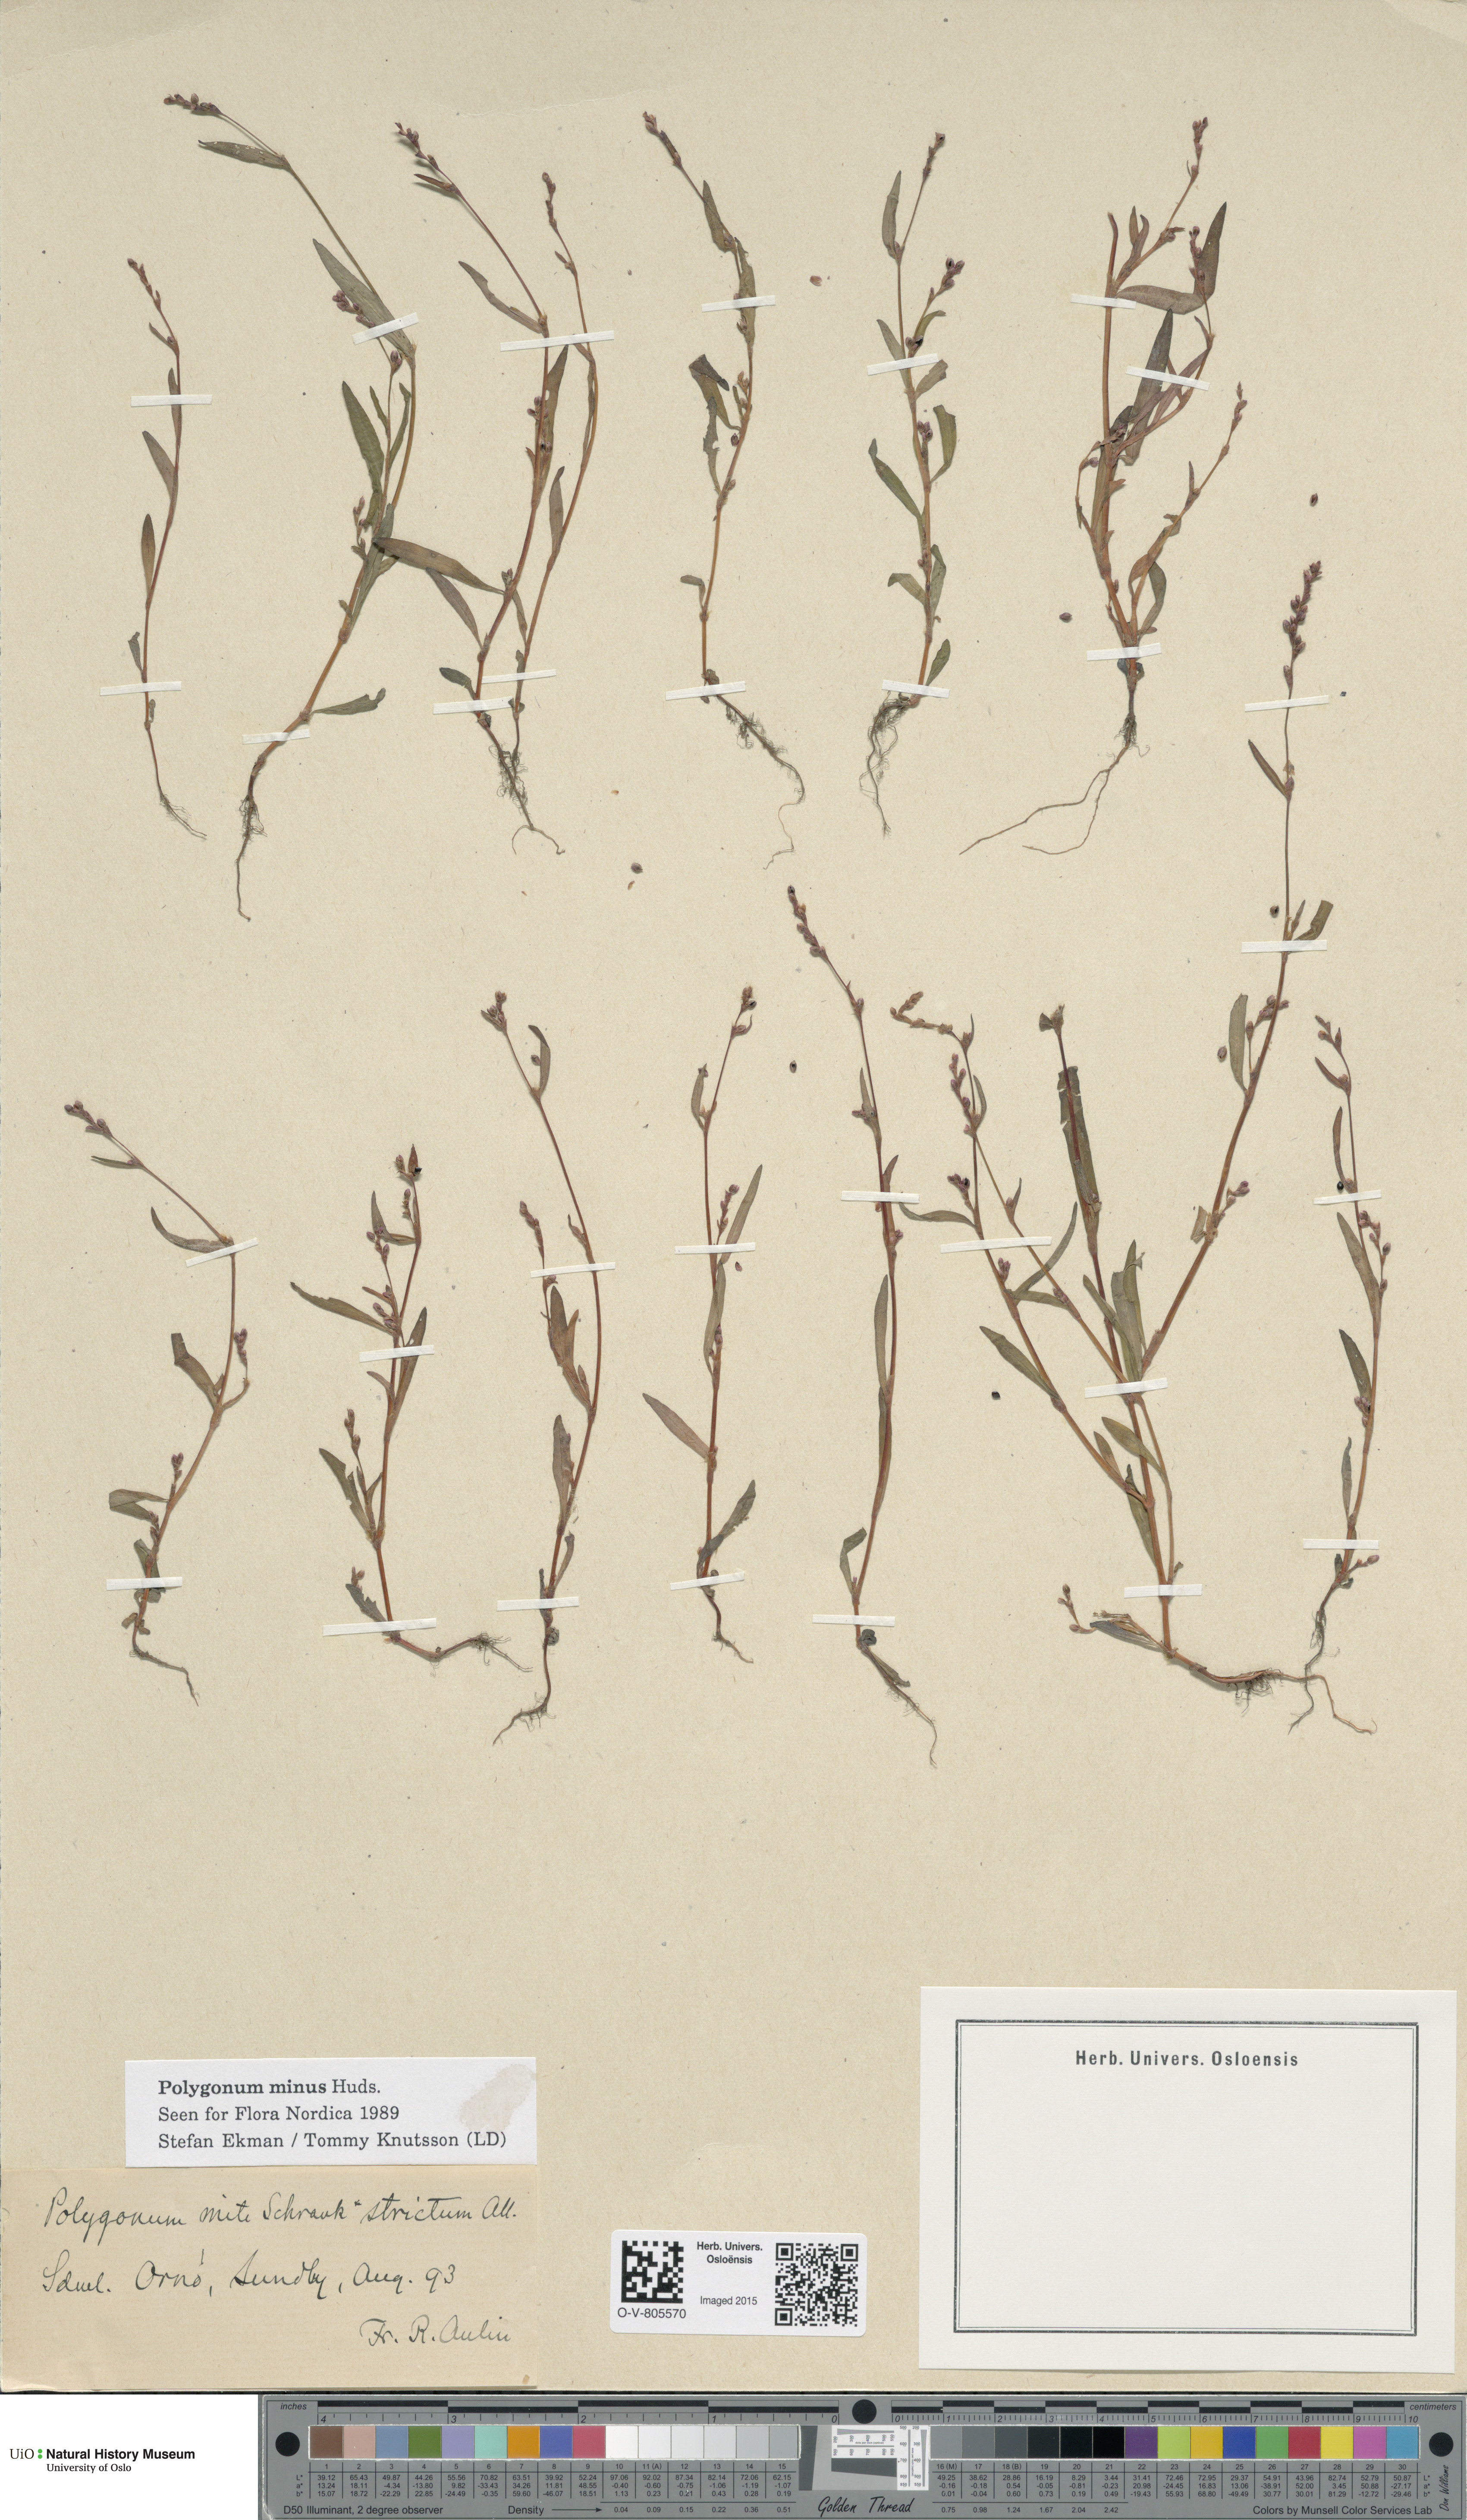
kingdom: Plantae
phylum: Tracheophyta
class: Magnoliopsida
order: Caryophyllales
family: Polygonaceae
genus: Persicaria
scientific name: Persicaria minor
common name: Small water-pepper
